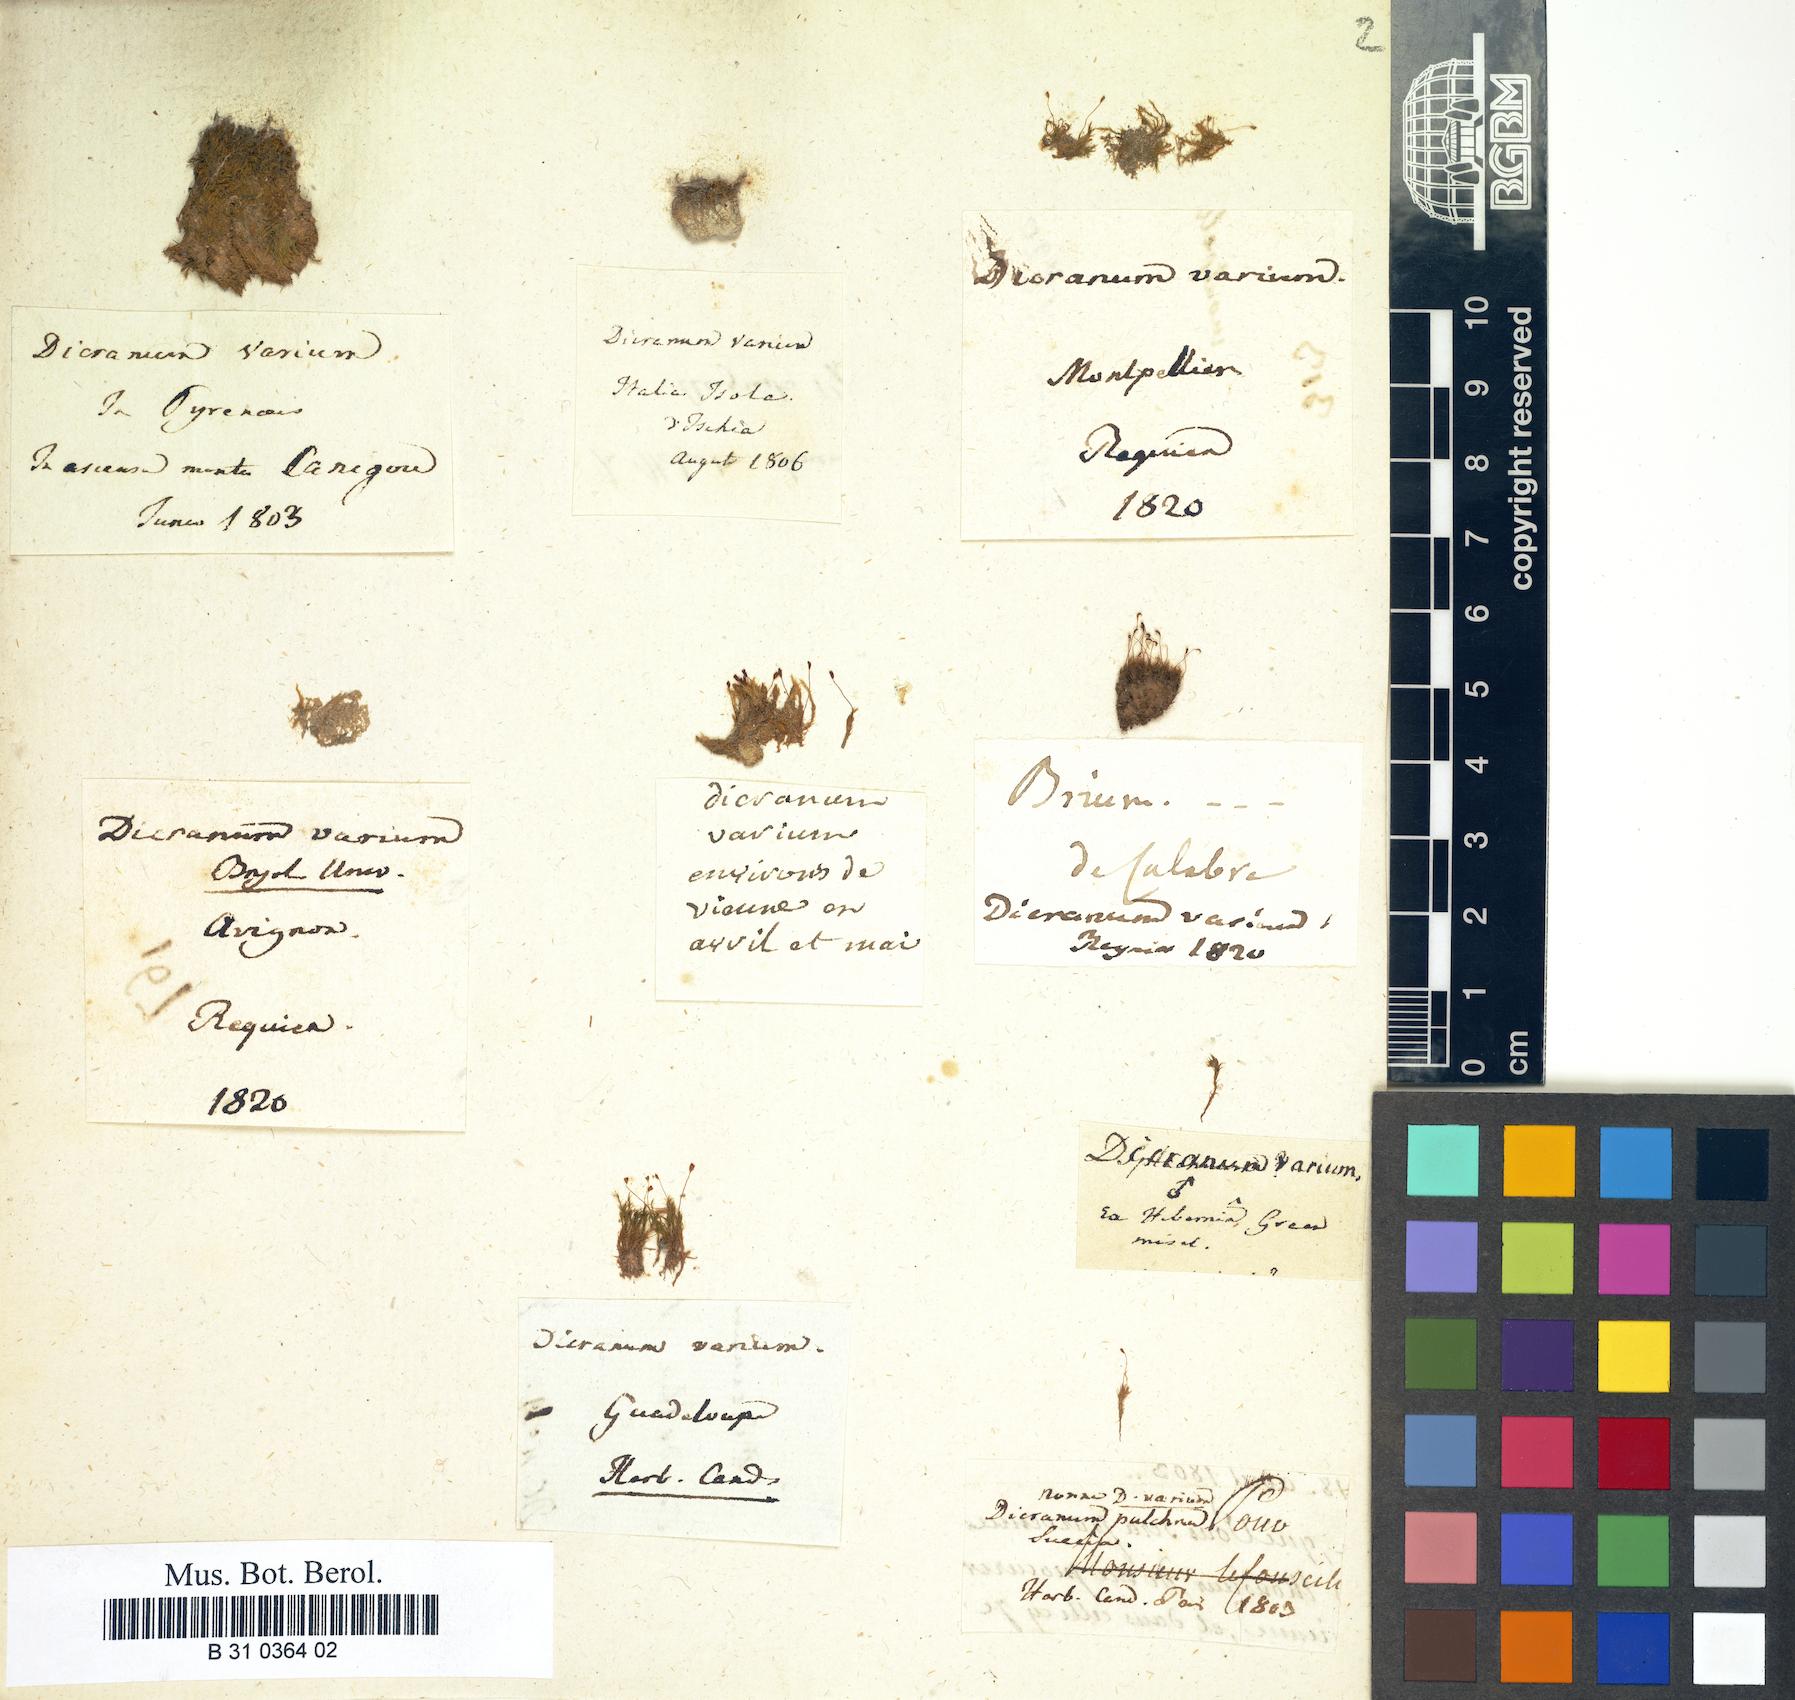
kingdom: Plantae
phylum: Bryophyta
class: Bryopsida
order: Dicranales
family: Dicranellaceae
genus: Dicranella
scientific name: Dicranella varia
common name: Variable forklet moss
